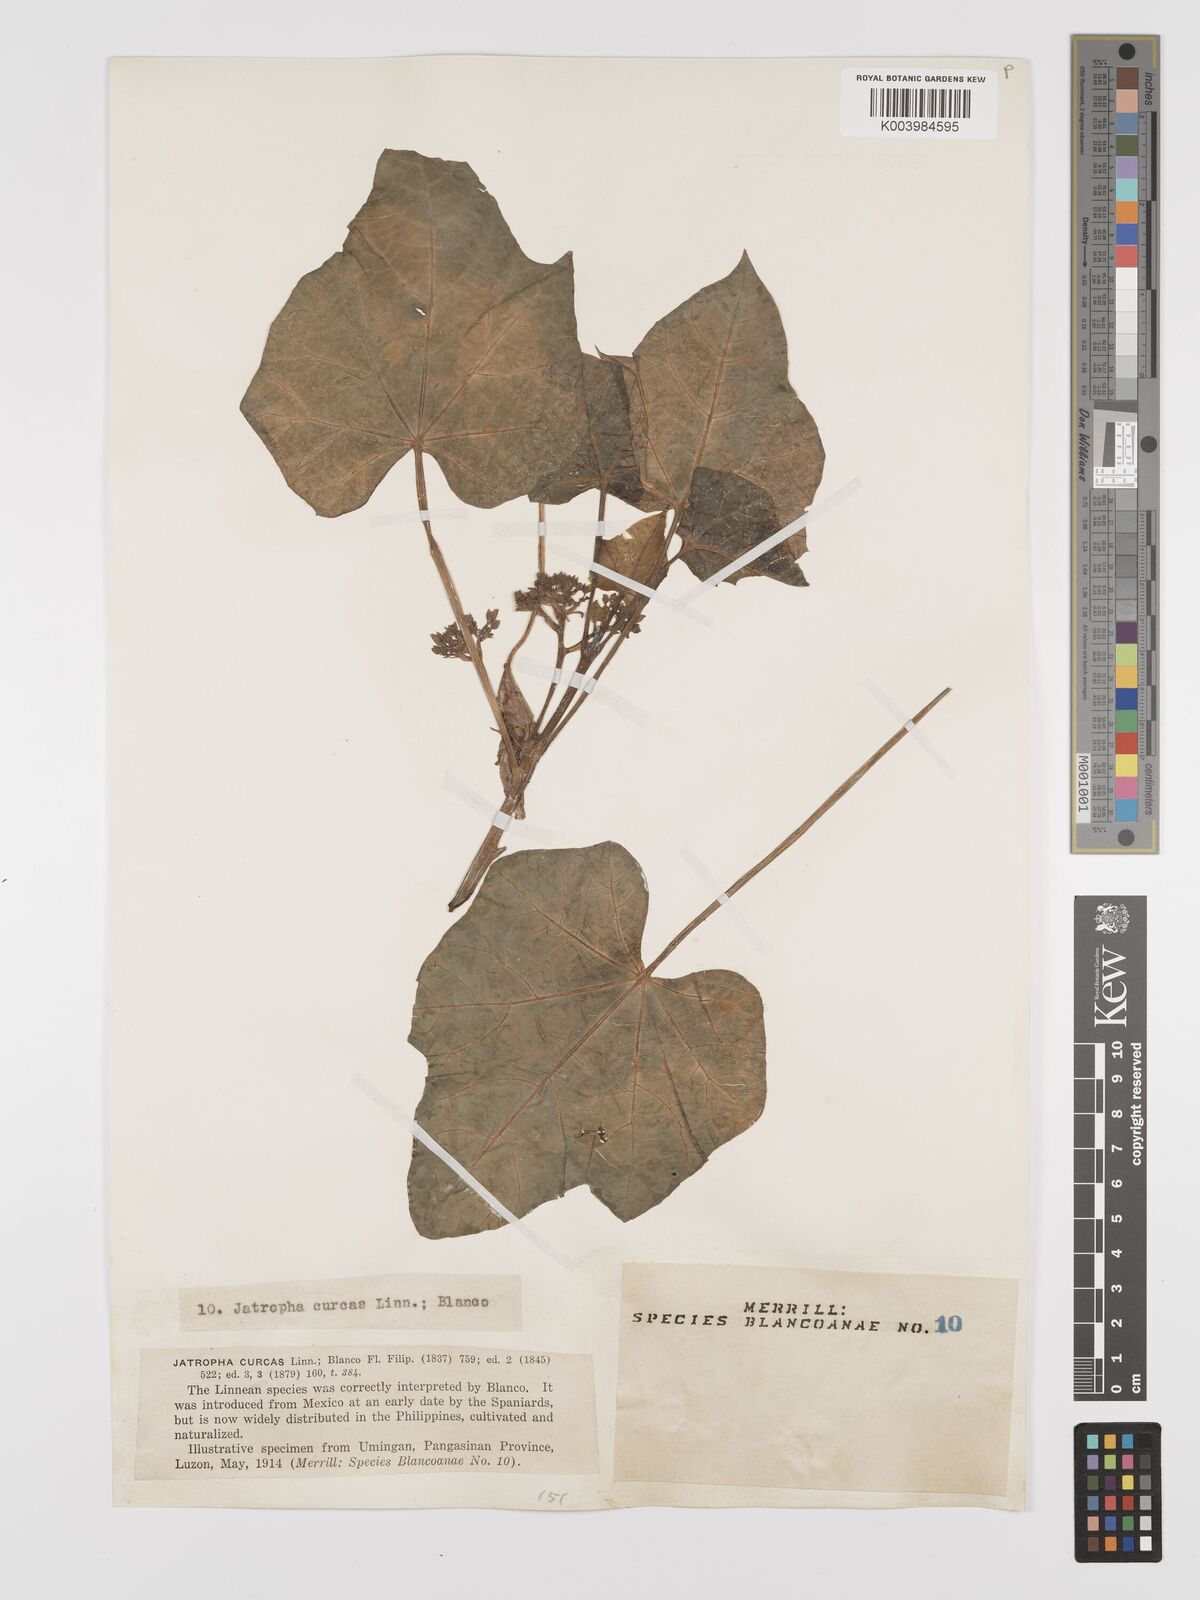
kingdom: Plantae
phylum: Tracheophyta
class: Magnoliopsida
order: Malpighiales
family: Euphorbiaceae
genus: Jatropha
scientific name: Jatropha curcas
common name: Barbados nut
